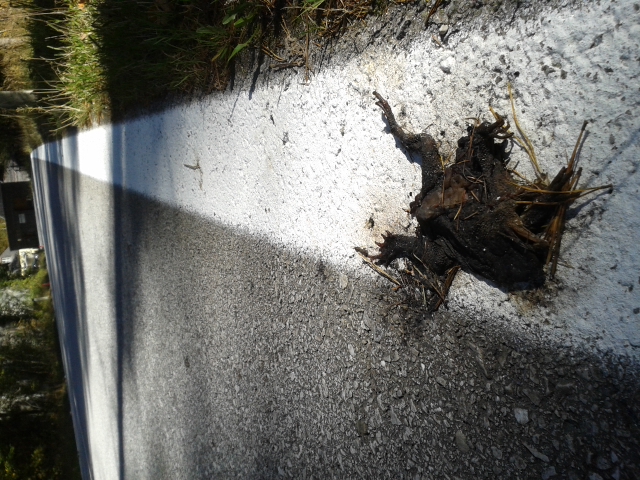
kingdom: Animalia
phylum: Chordata
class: Amphibia
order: Anura
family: Bufonidae
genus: Bufo
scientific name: Bufo bufo
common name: Common toad
